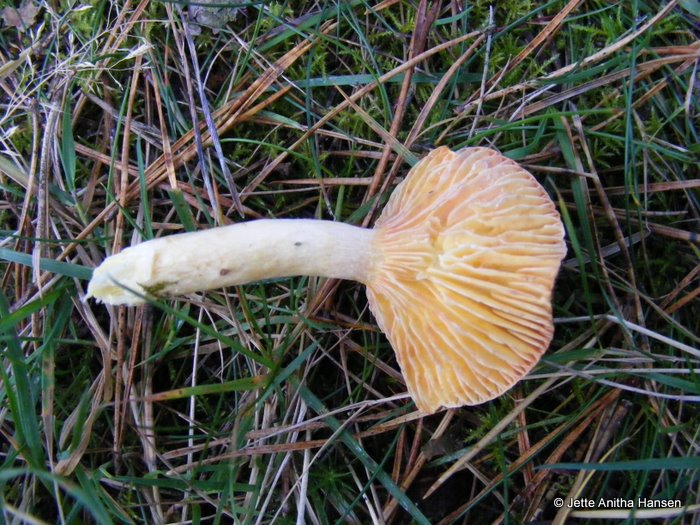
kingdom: Fungi
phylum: Basidiomycota
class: Agaricomycetes
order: Agaricales
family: Hygrophoraceae
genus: Hygrophorus
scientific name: Hygrophorus hypothejus
